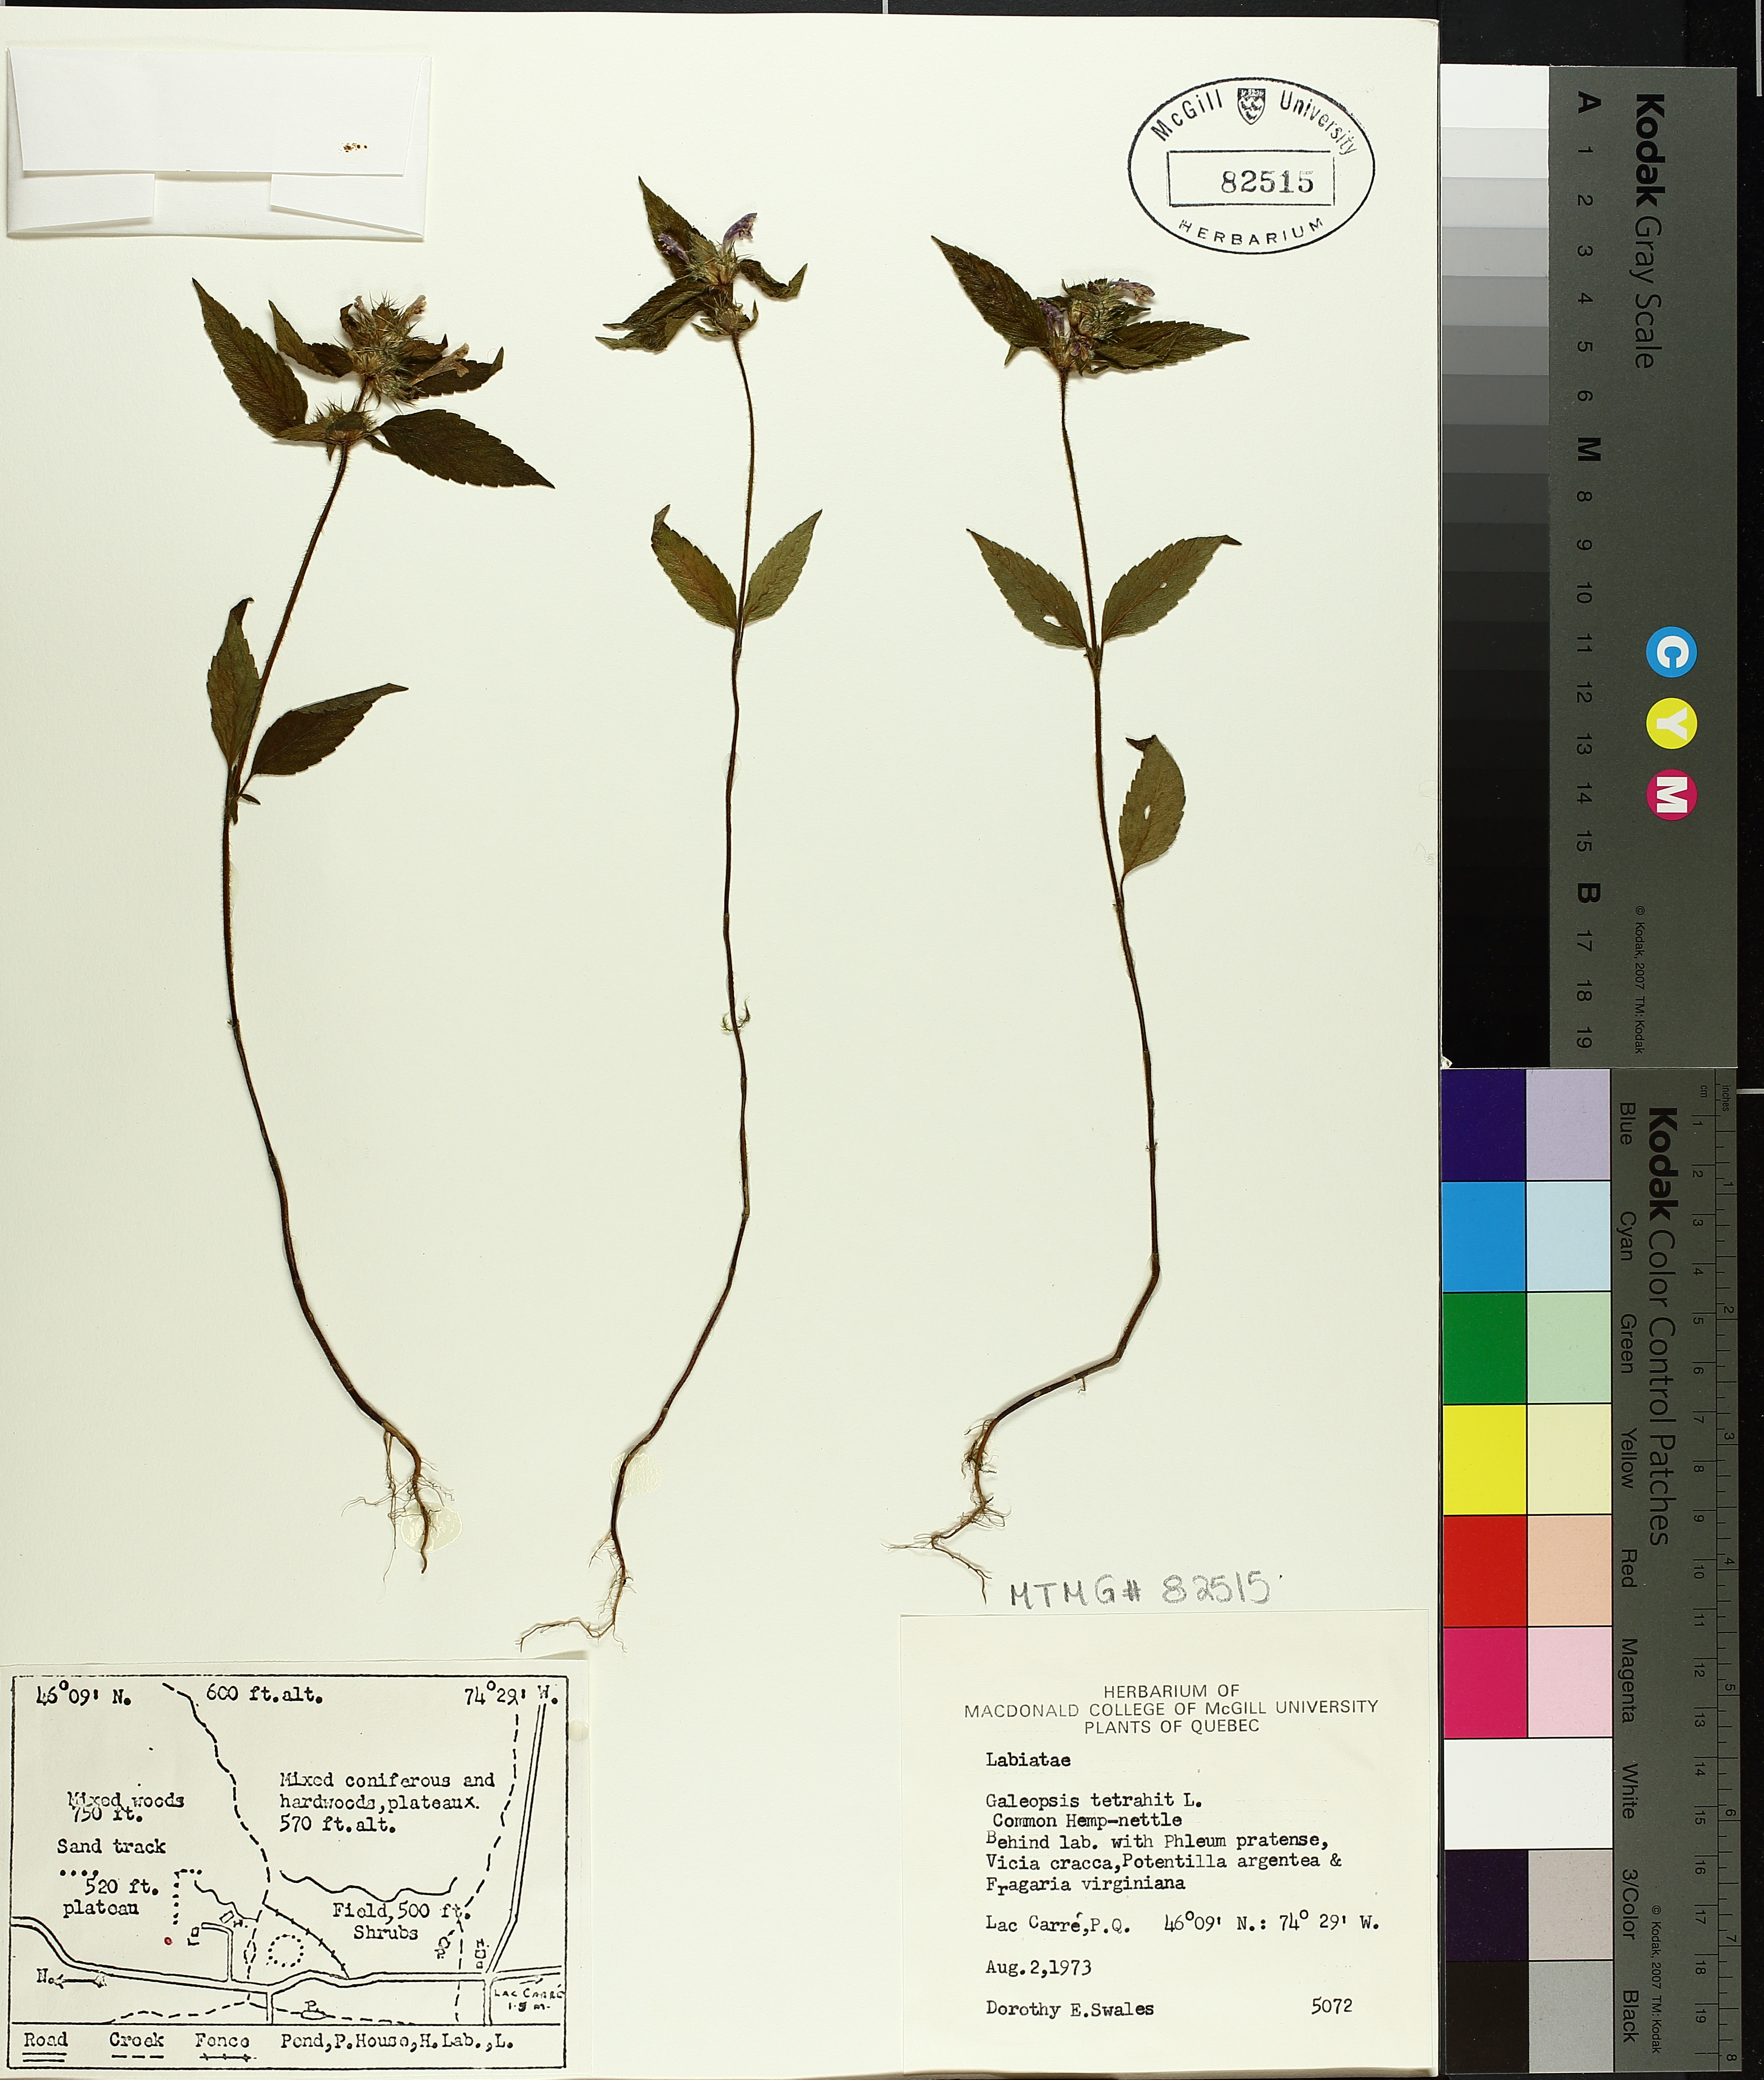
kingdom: Plantae
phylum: Tracheophyta
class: Magnoliopsida
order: Lamiales
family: Lamiaceae
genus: Galeopsis
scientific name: Galeopsis tetrahit
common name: Common hemp-nettle
